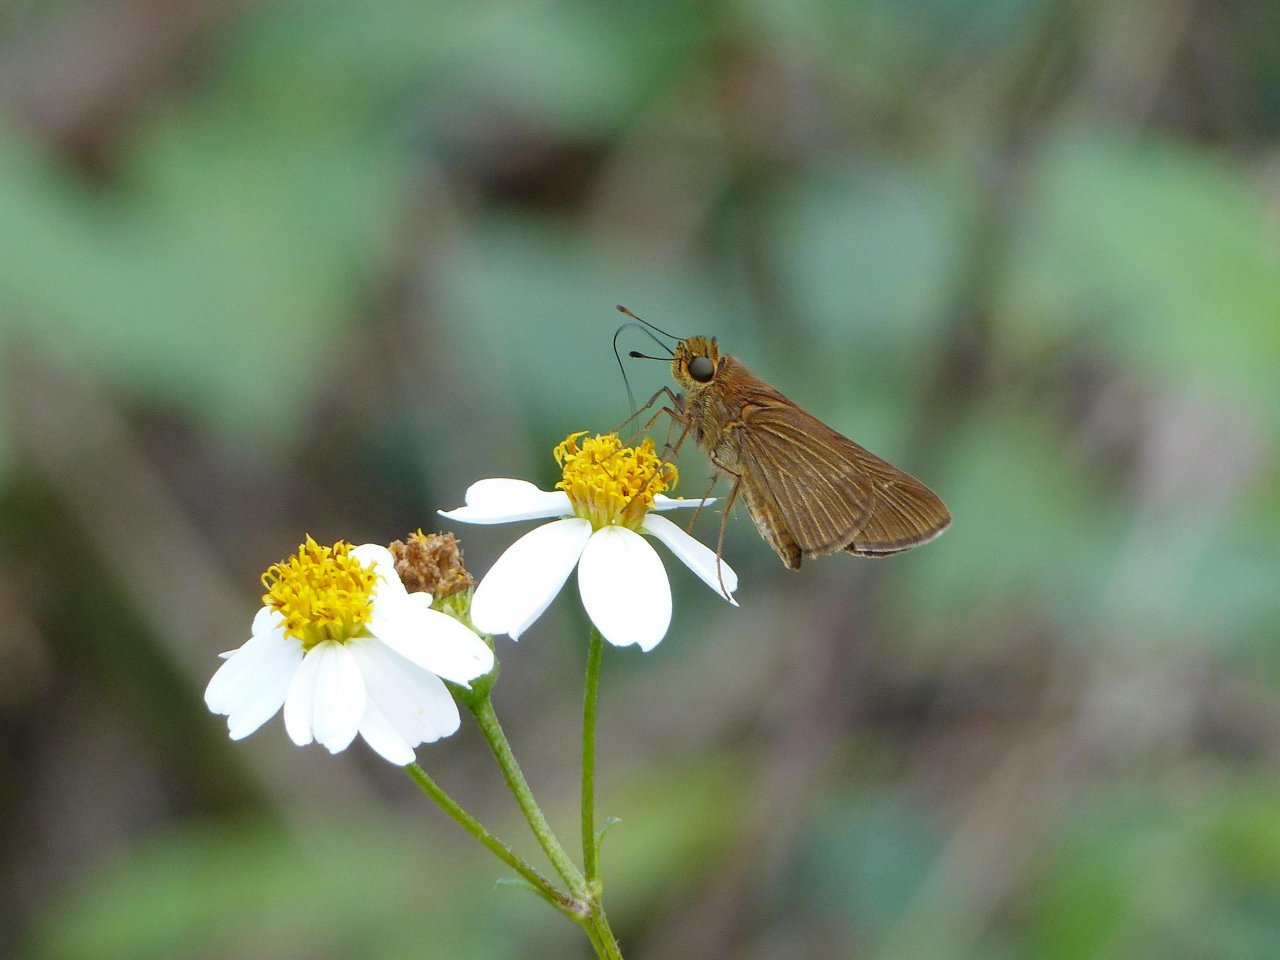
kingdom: Animalia
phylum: Arthropoda
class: Insecta
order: Lepidoptera
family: Hesperiidae
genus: Panoquina
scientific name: Panoquina ocola
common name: Ocola Skipper
